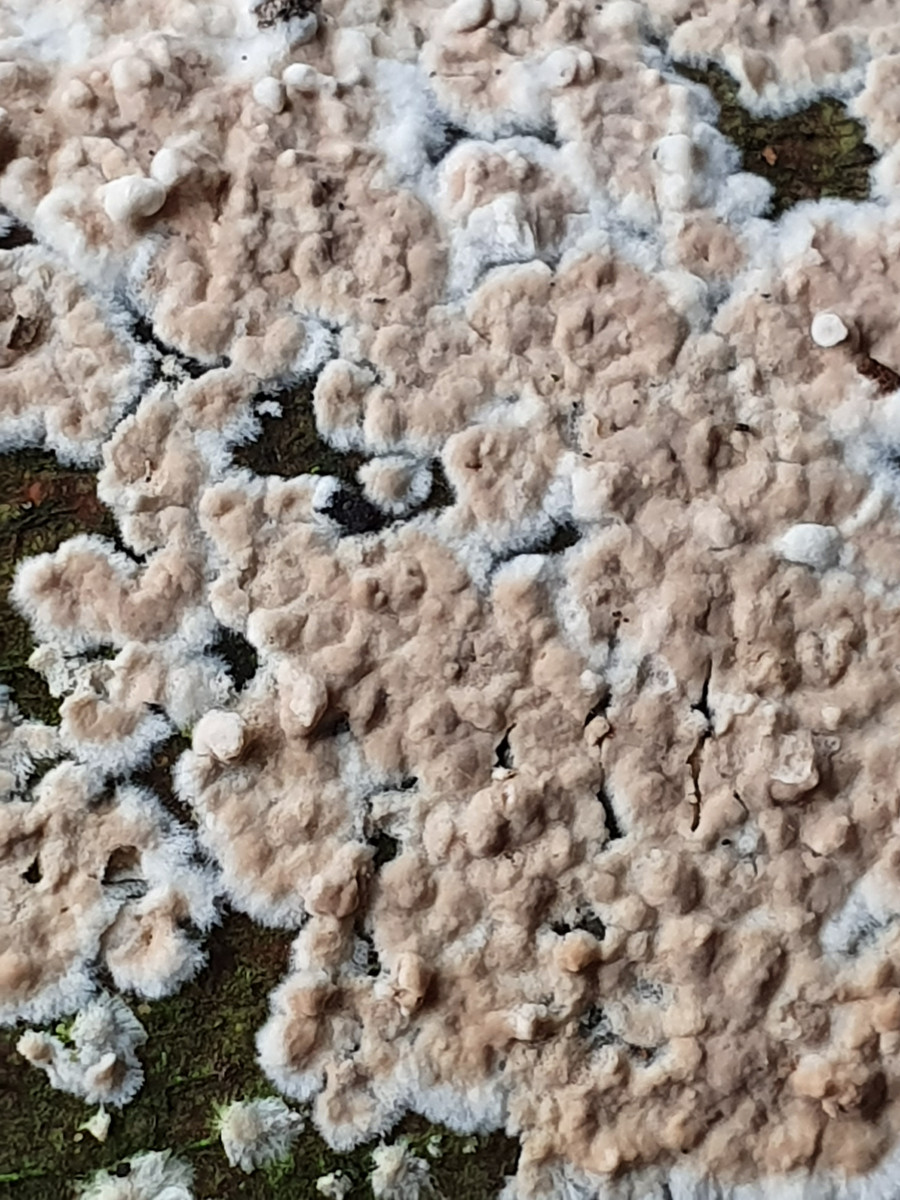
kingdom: Fungi
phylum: Basidiomycota
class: Agaricomycetes
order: Agaricales
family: Physalacriaceae
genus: Cylindrobasidium
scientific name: Cylindrobasidium evolvens
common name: sprækkehinde
